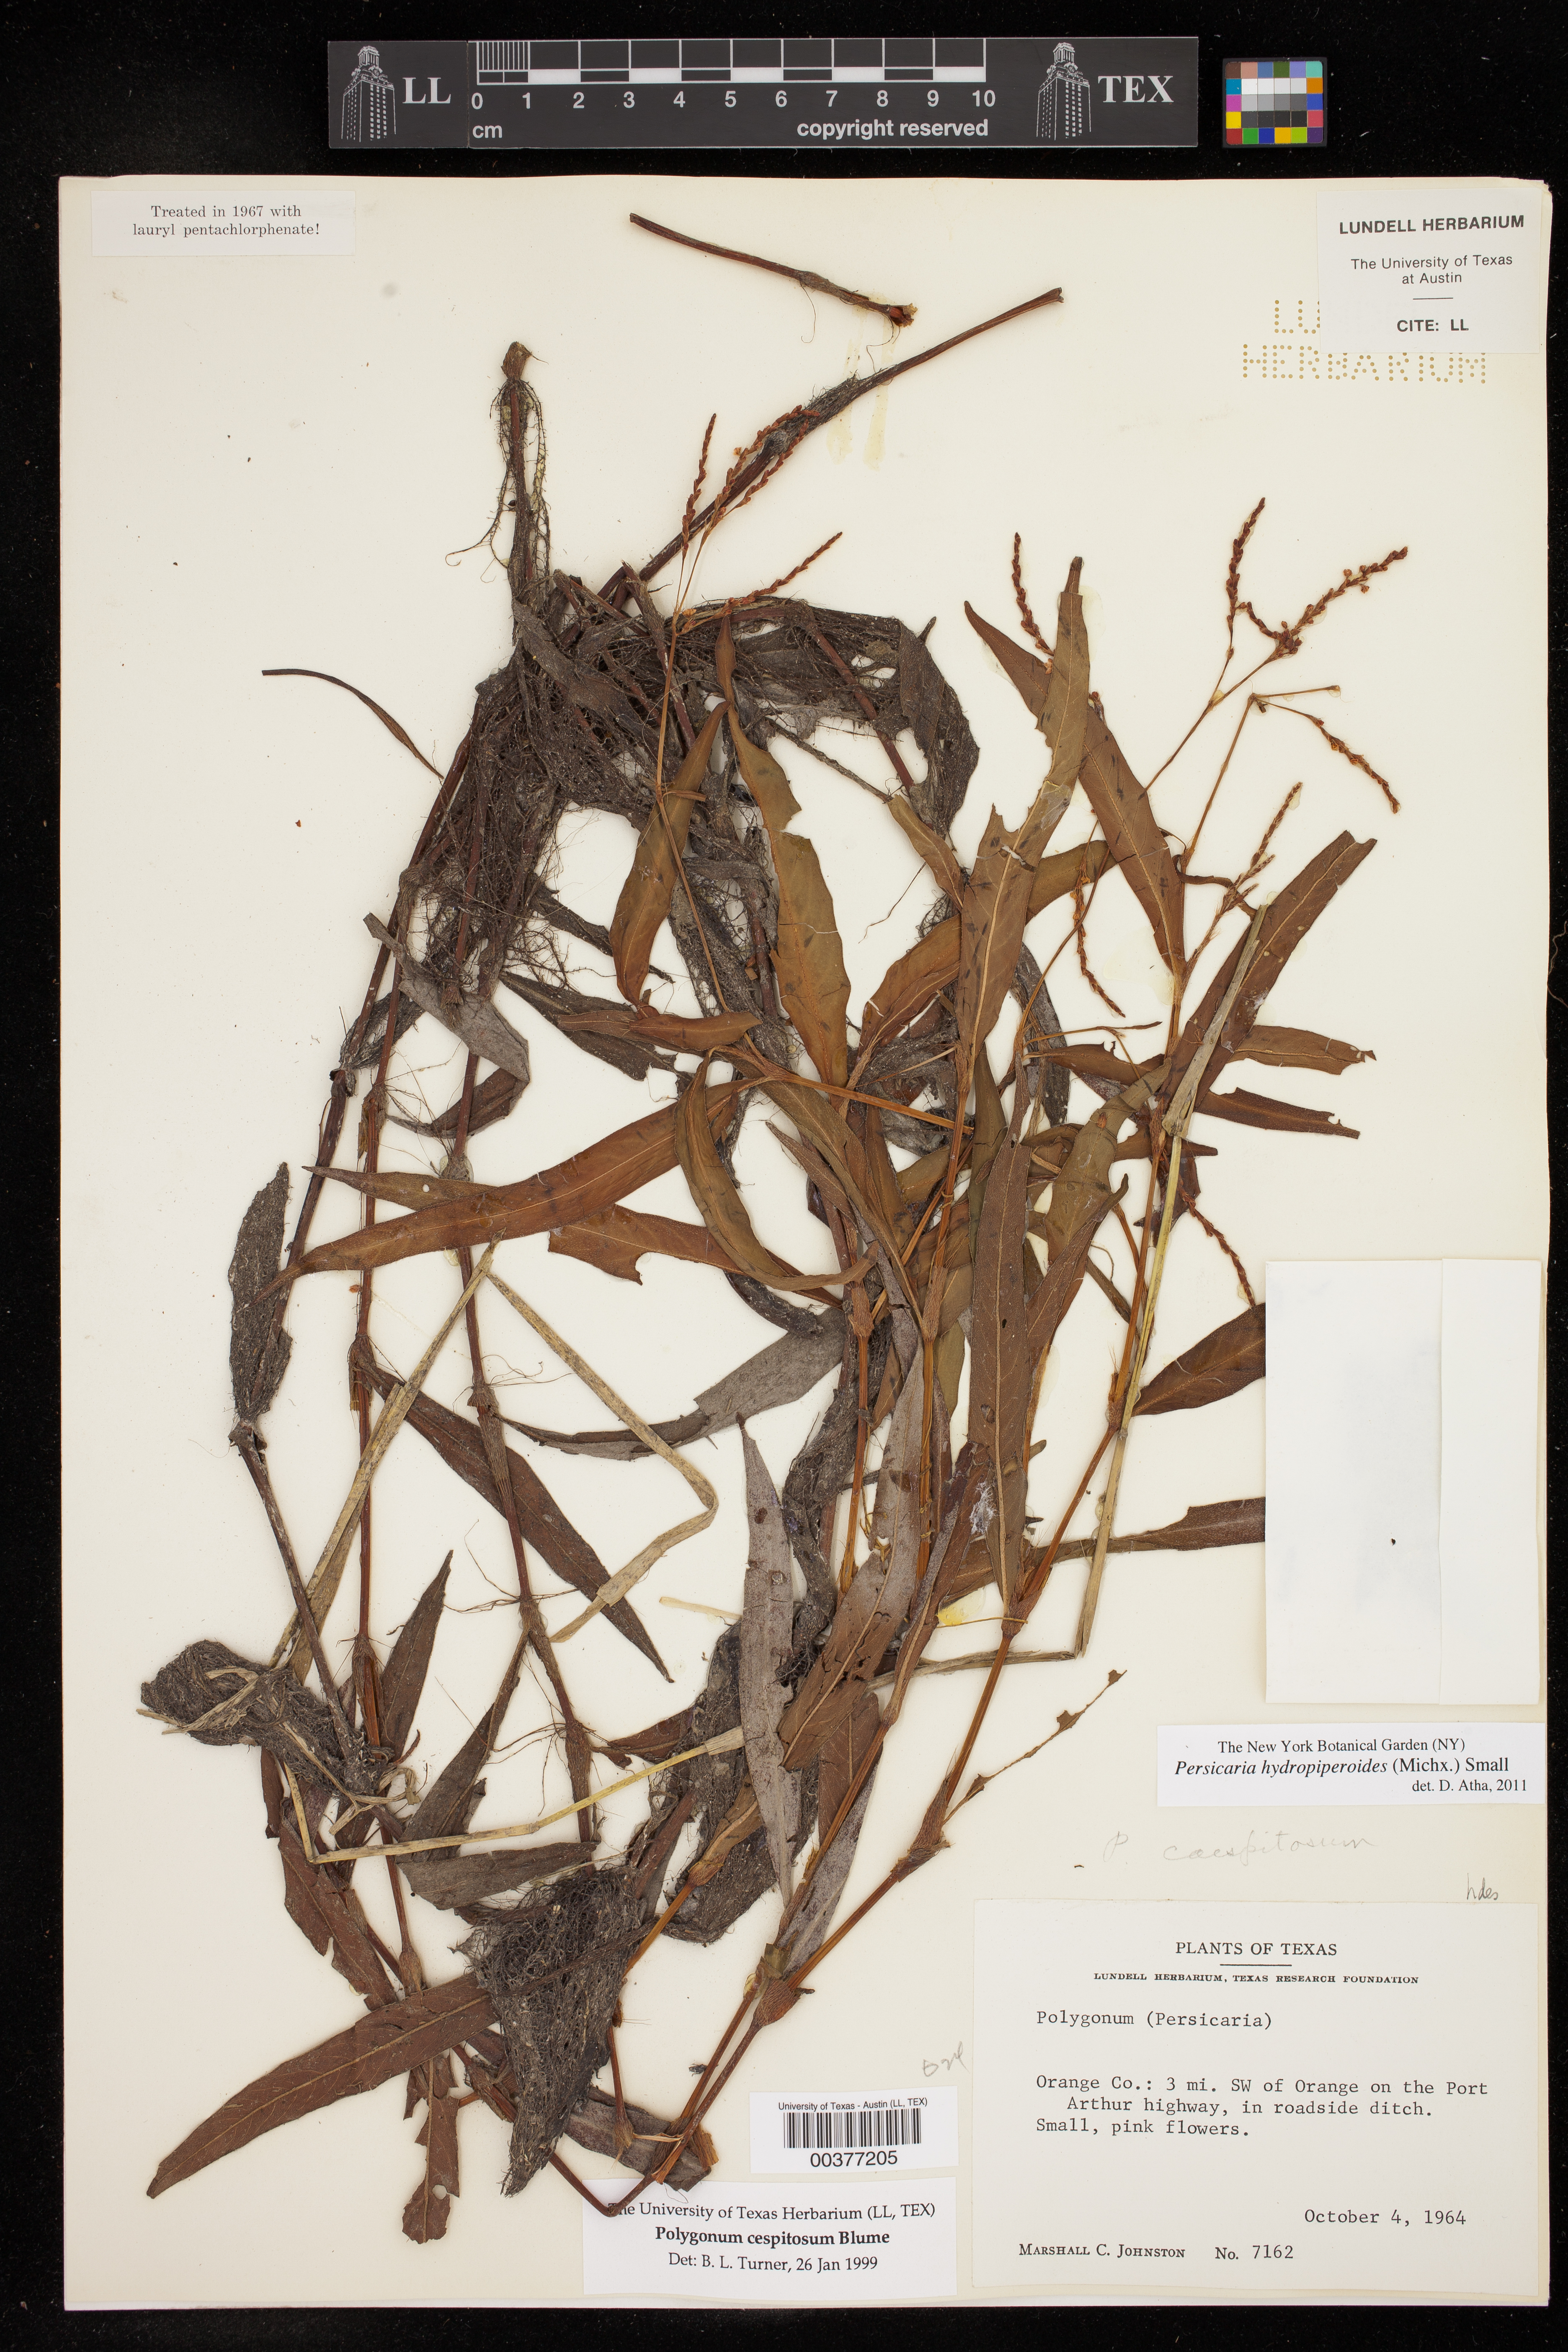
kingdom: Plantae
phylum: Tracheophyta
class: Magnoliopsida
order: Caryophyllales
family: Polygonaceae
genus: Persicaria
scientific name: Persicaria hydropiperoides
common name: Swamp smartweed
